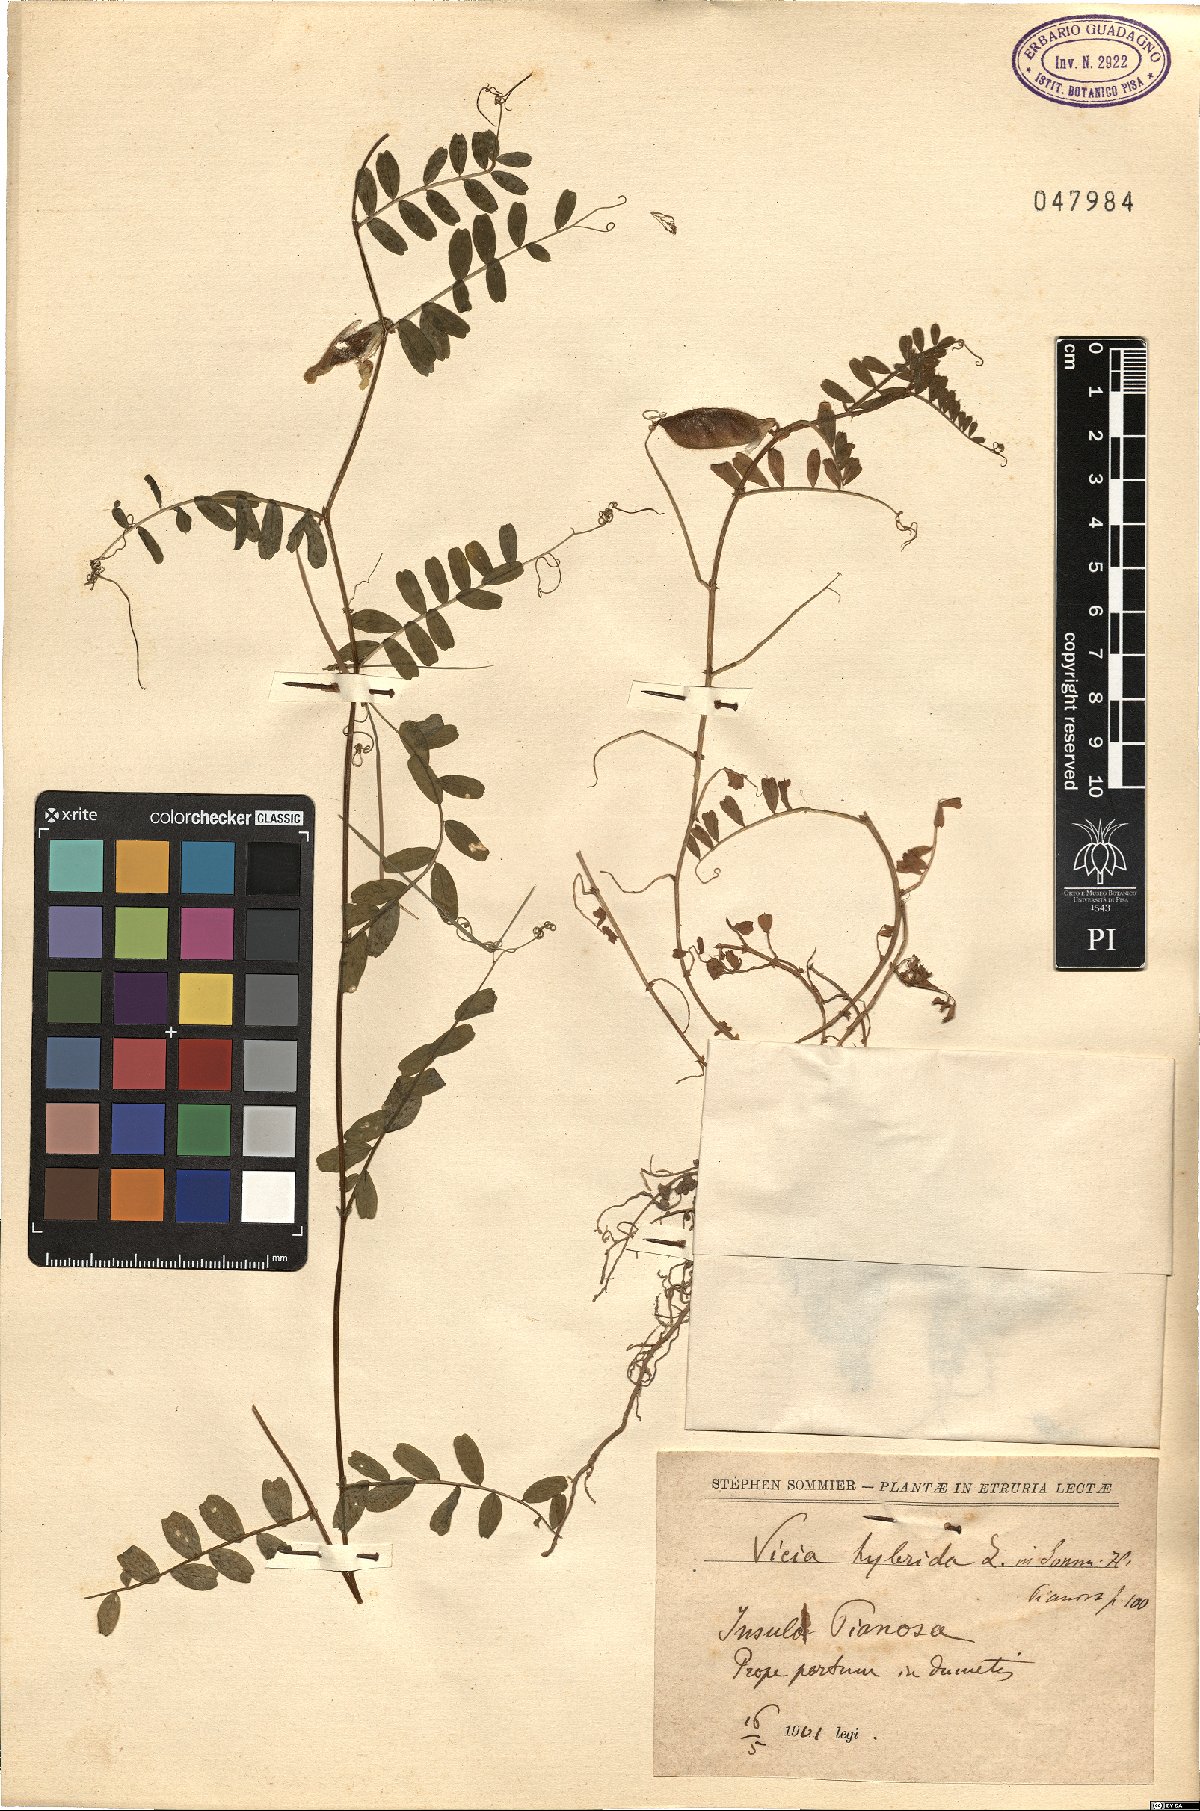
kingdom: Plantae
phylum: Tracheophyta
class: Magnoliopsida
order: Fabales
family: Fabaceae
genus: Vicia
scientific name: Vicia hybrida
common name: Hairy yellow vetch
